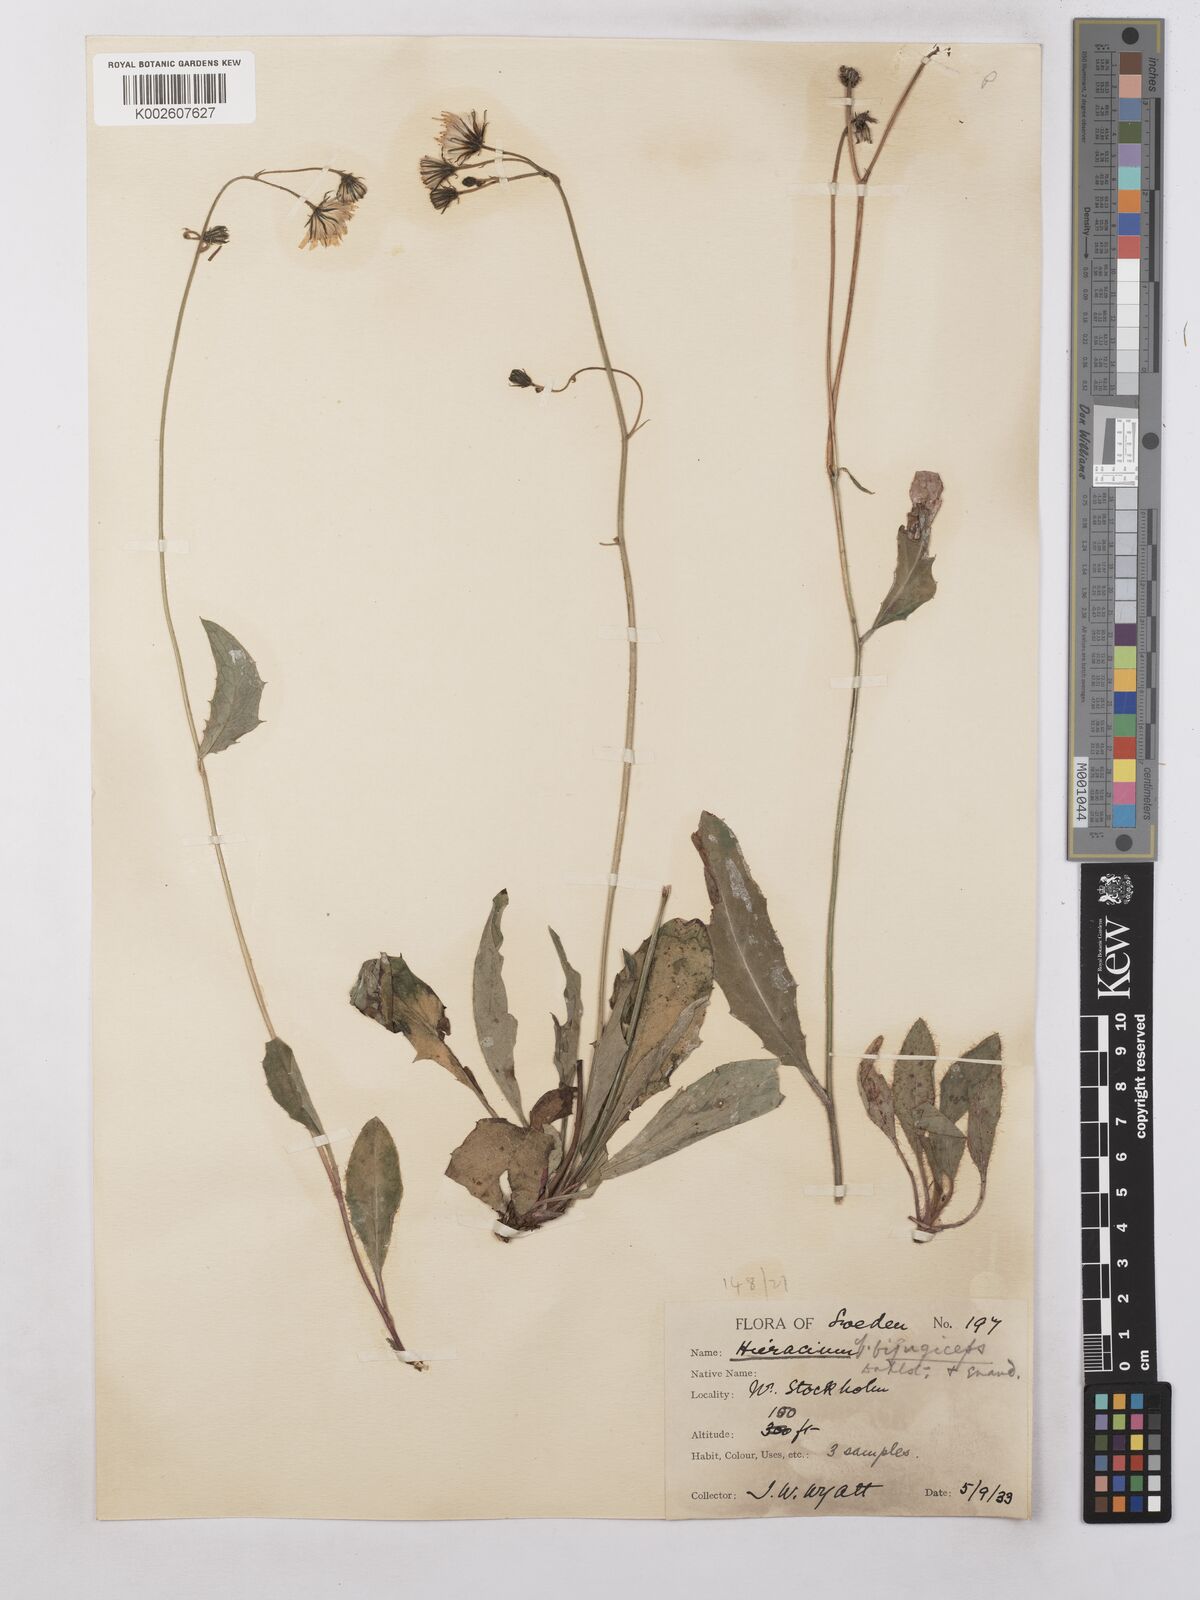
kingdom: Plantae
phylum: Tracheophyta
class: Magnoliopsida
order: Asterales
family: Asteraceae
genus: Hieracium
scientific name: Hieracium subramosum
